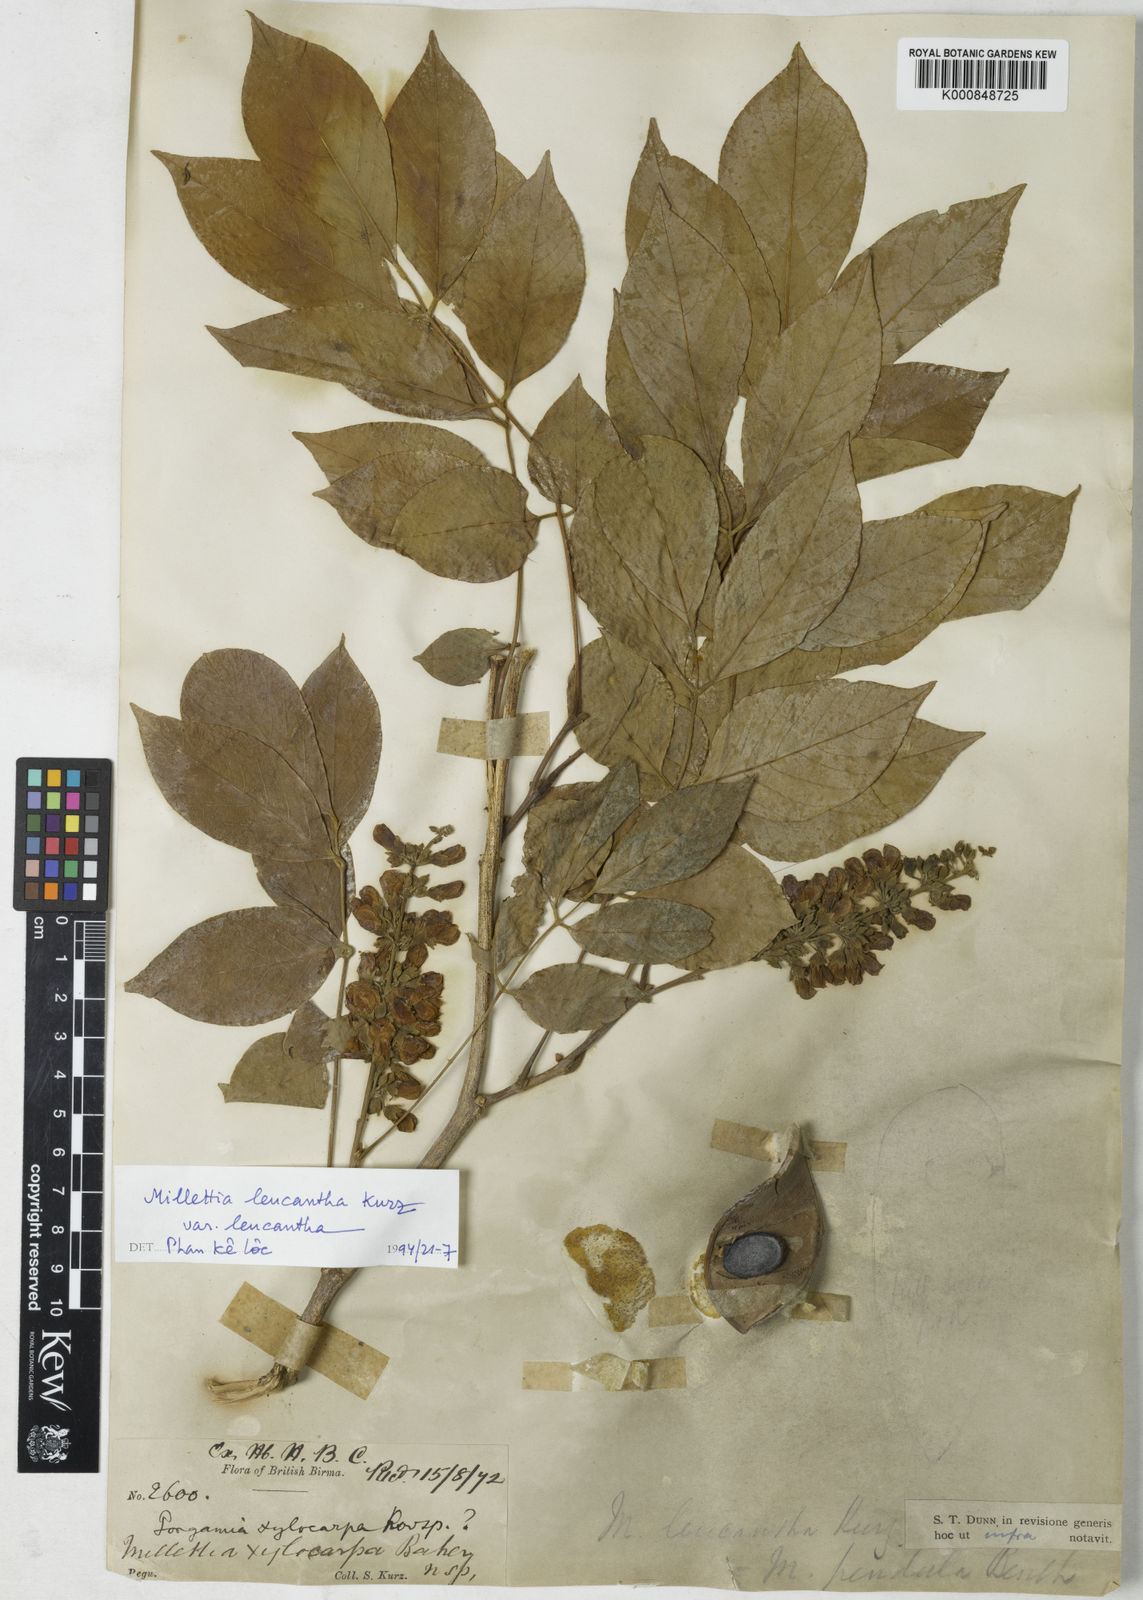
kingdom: Plantae
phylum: Tracheophyta
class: Magnoliopsida
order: Fabales
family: Fabaceae
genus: Imbralyx
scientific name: Imbralyx leucanthus
